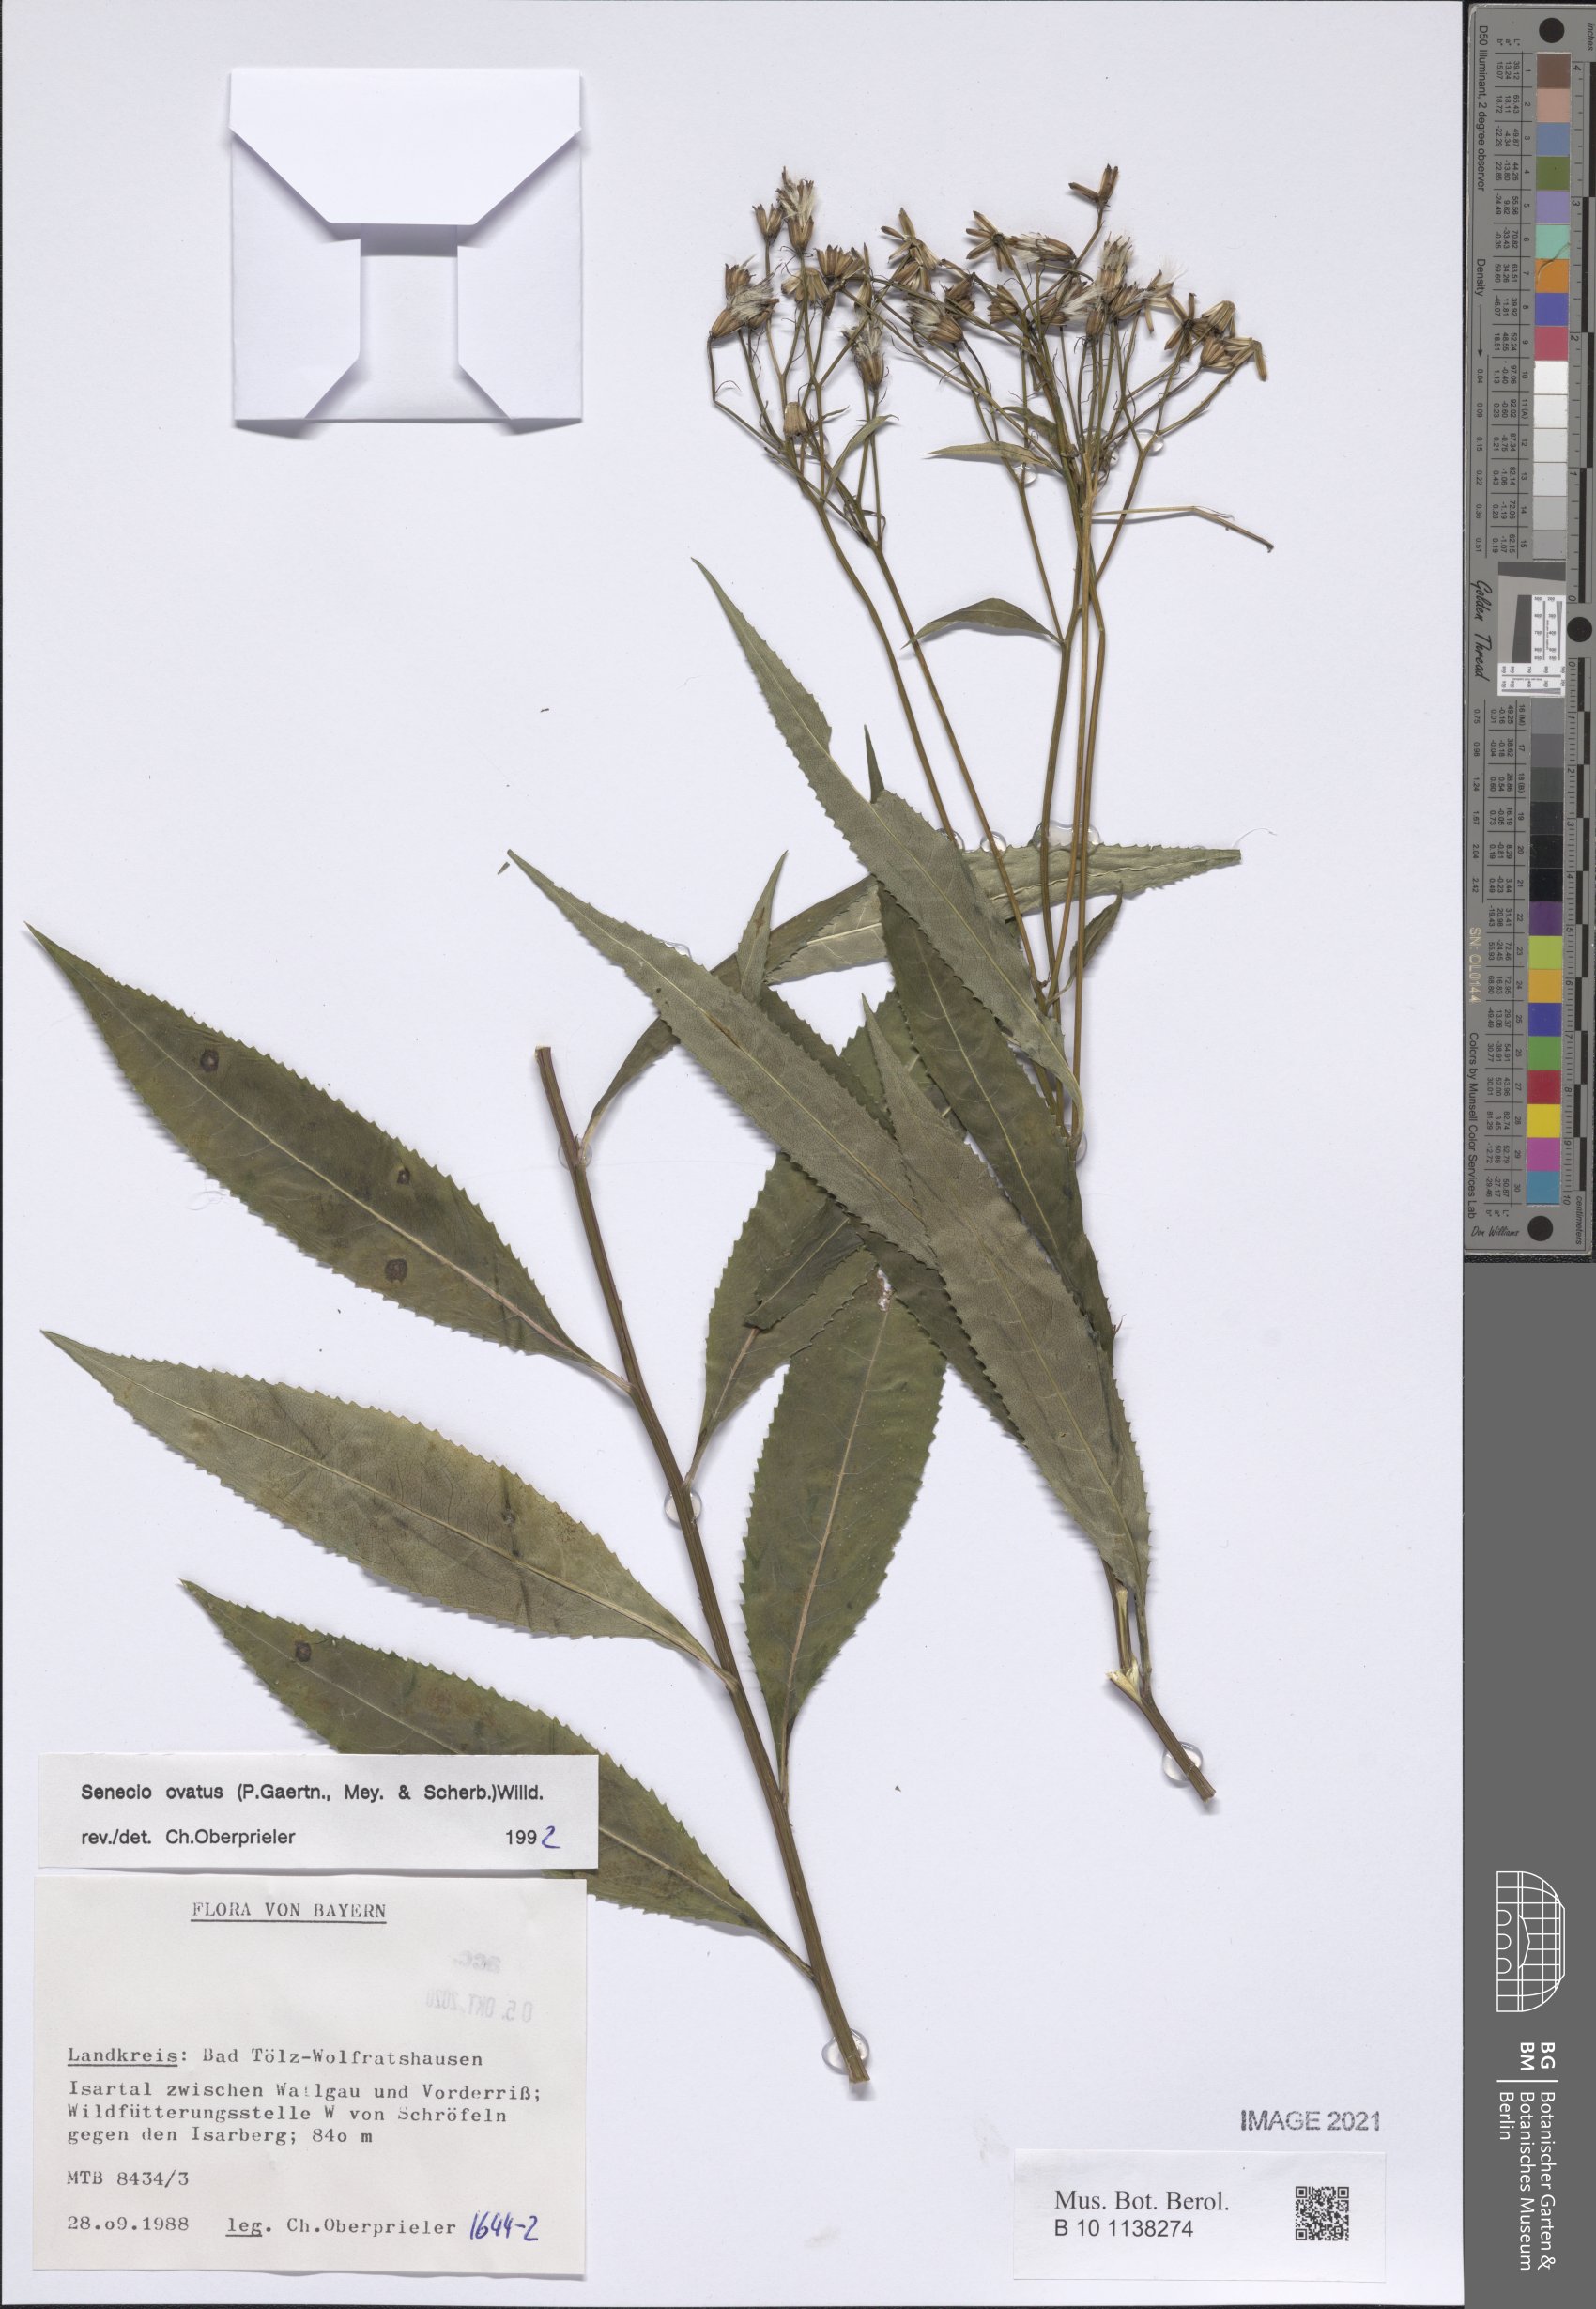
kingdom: Plantae
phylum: Tracheophyta
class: Magnoliopsida
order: Asterales
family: Asteraceae
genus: Senecio
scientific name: Senecio ovatus
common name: Wood ragwort
